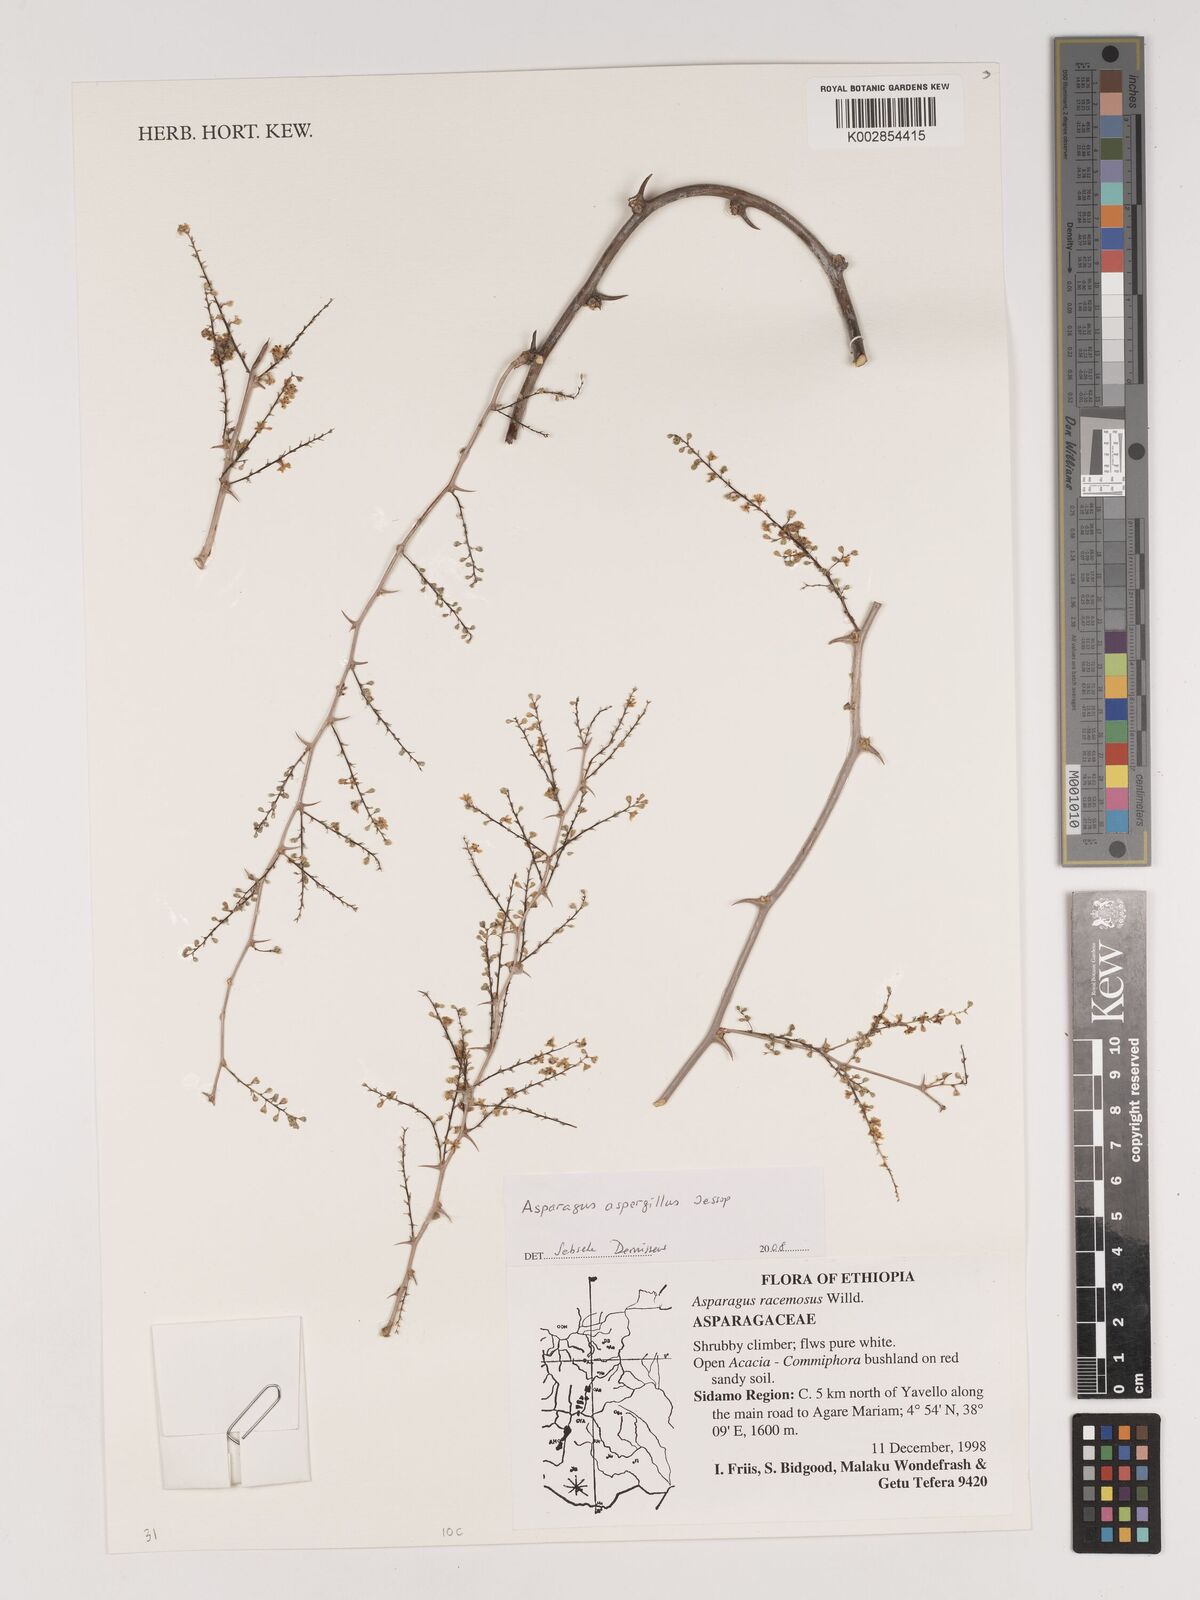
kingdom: Plantae
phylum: Tracheophyta
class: Liliopsida
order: Asparagales
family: Asparagaceae
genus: Asparagus
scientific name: Asparagus aspergillus
